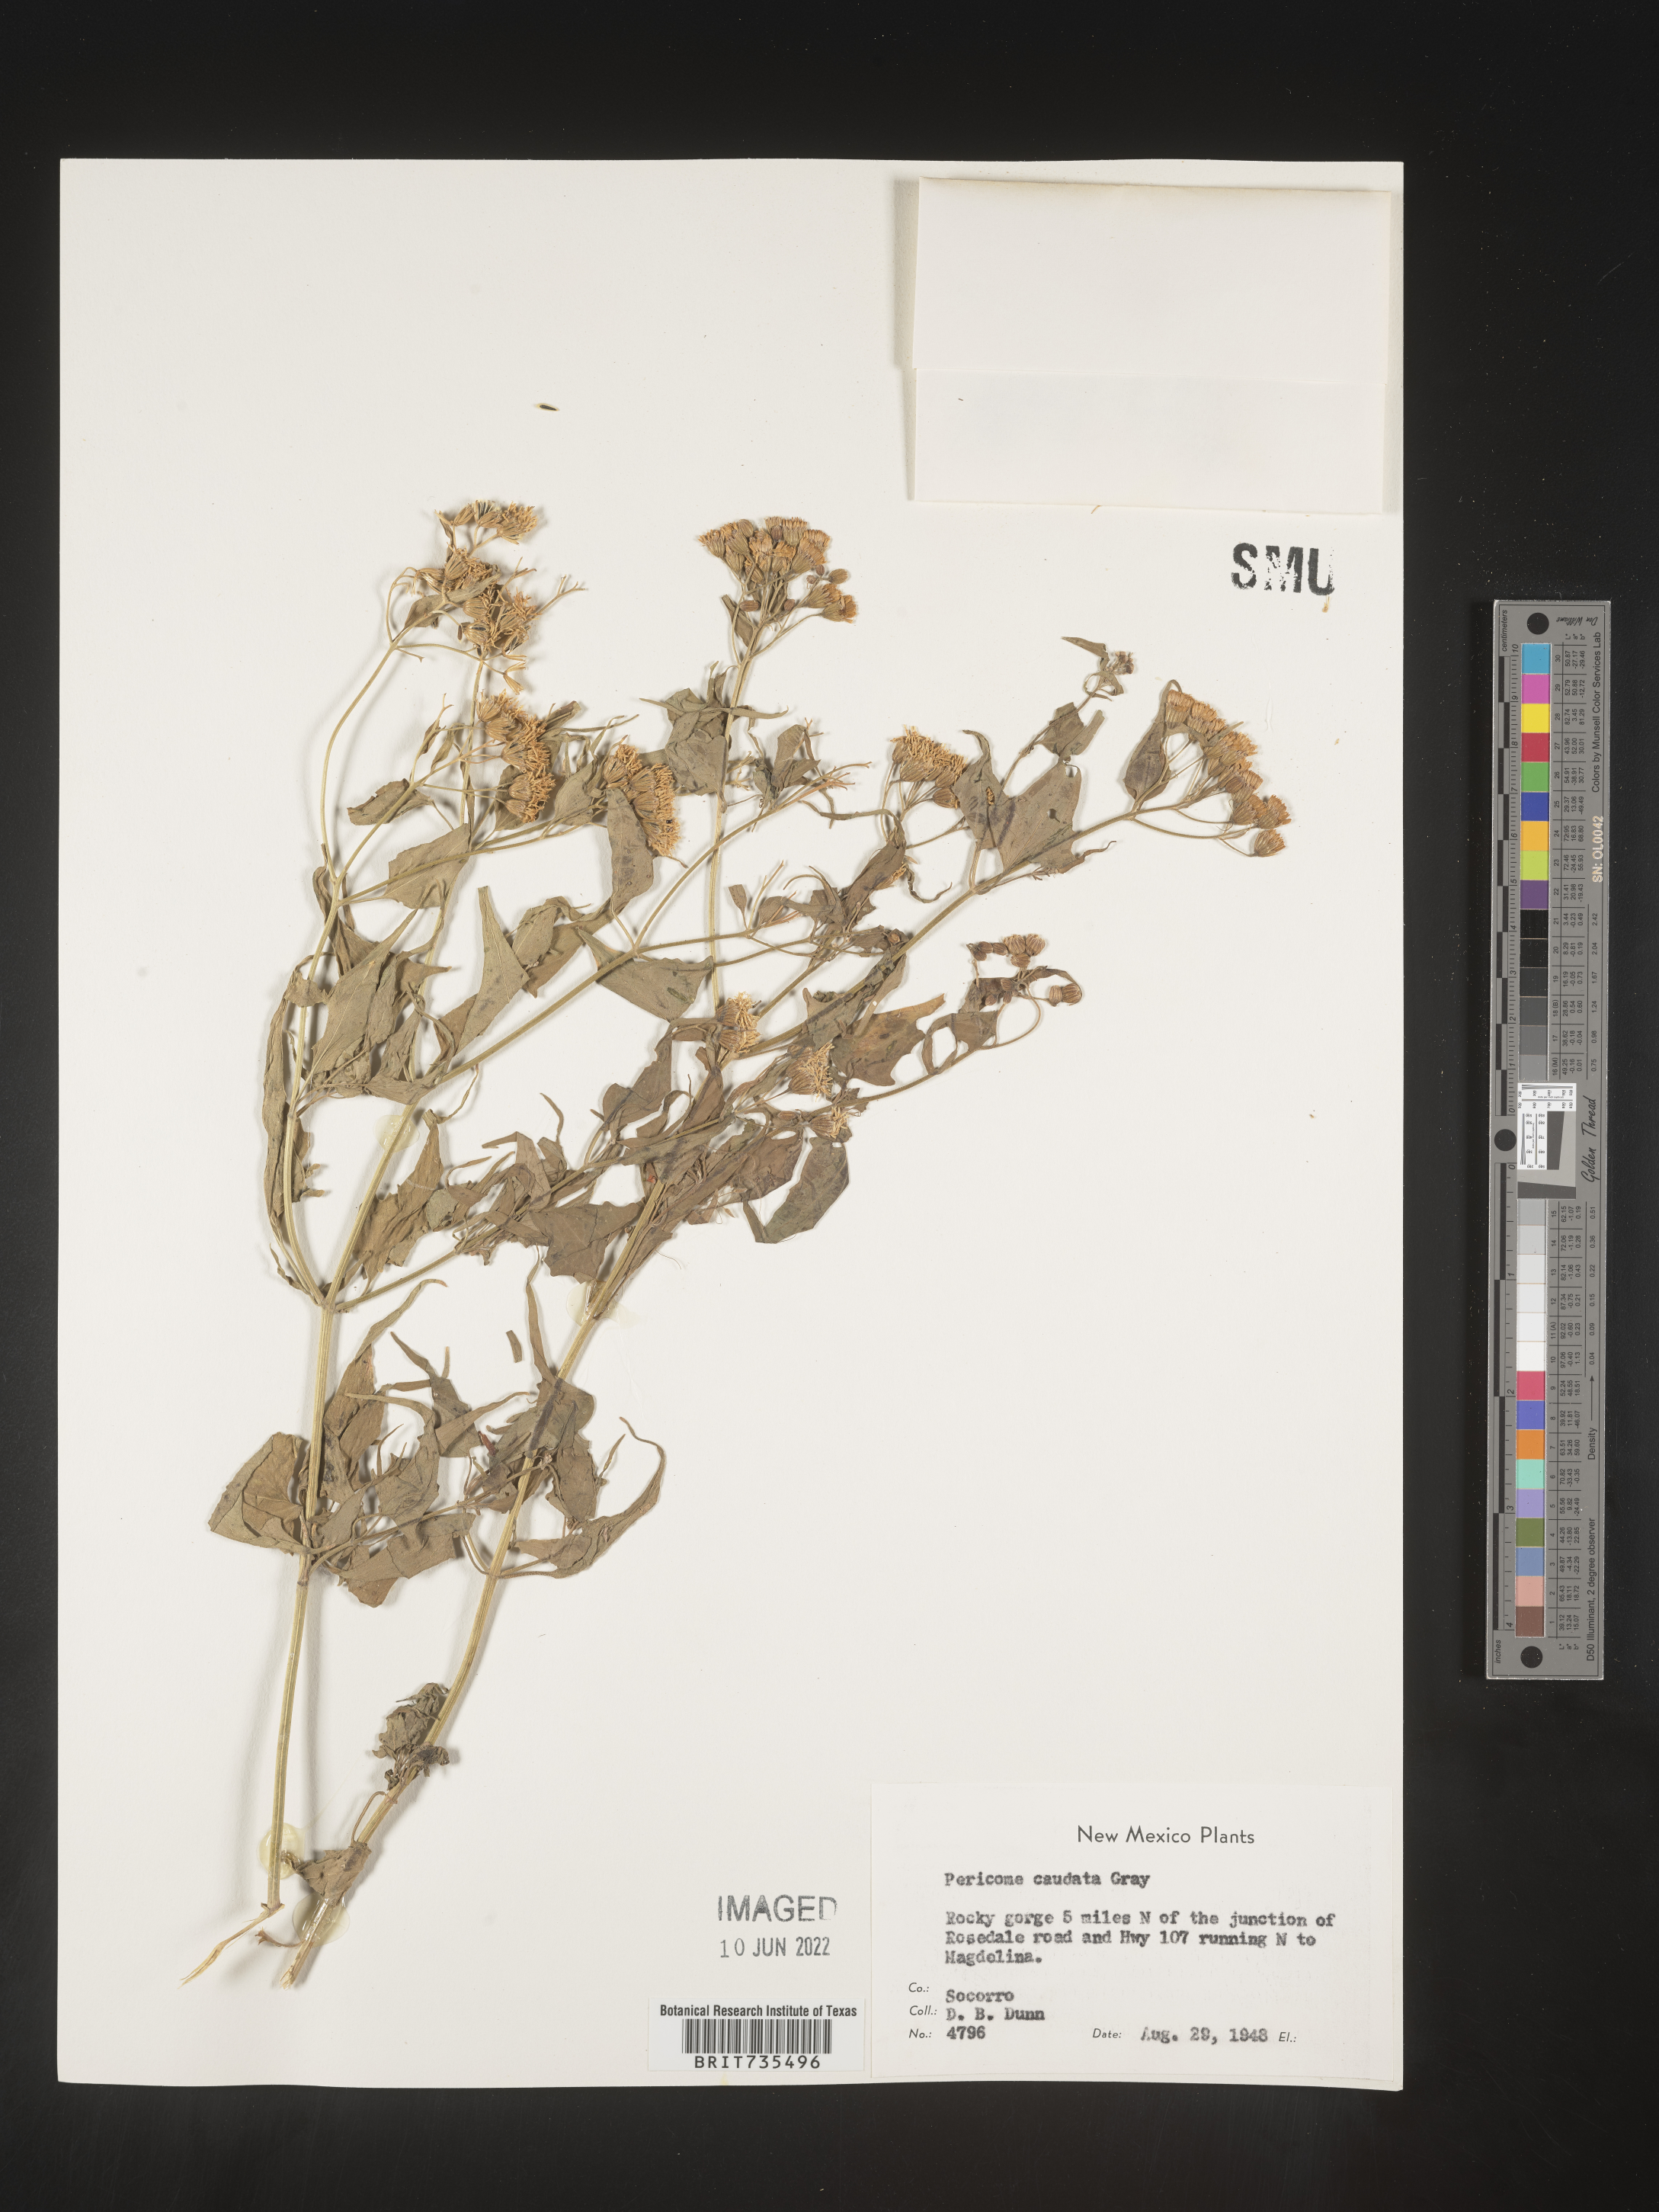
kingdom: Plantae
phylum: Tracheophyta
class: Magnoliopsida
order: Asterales
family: Asteraceae
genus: Pericome
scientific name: Pericome
